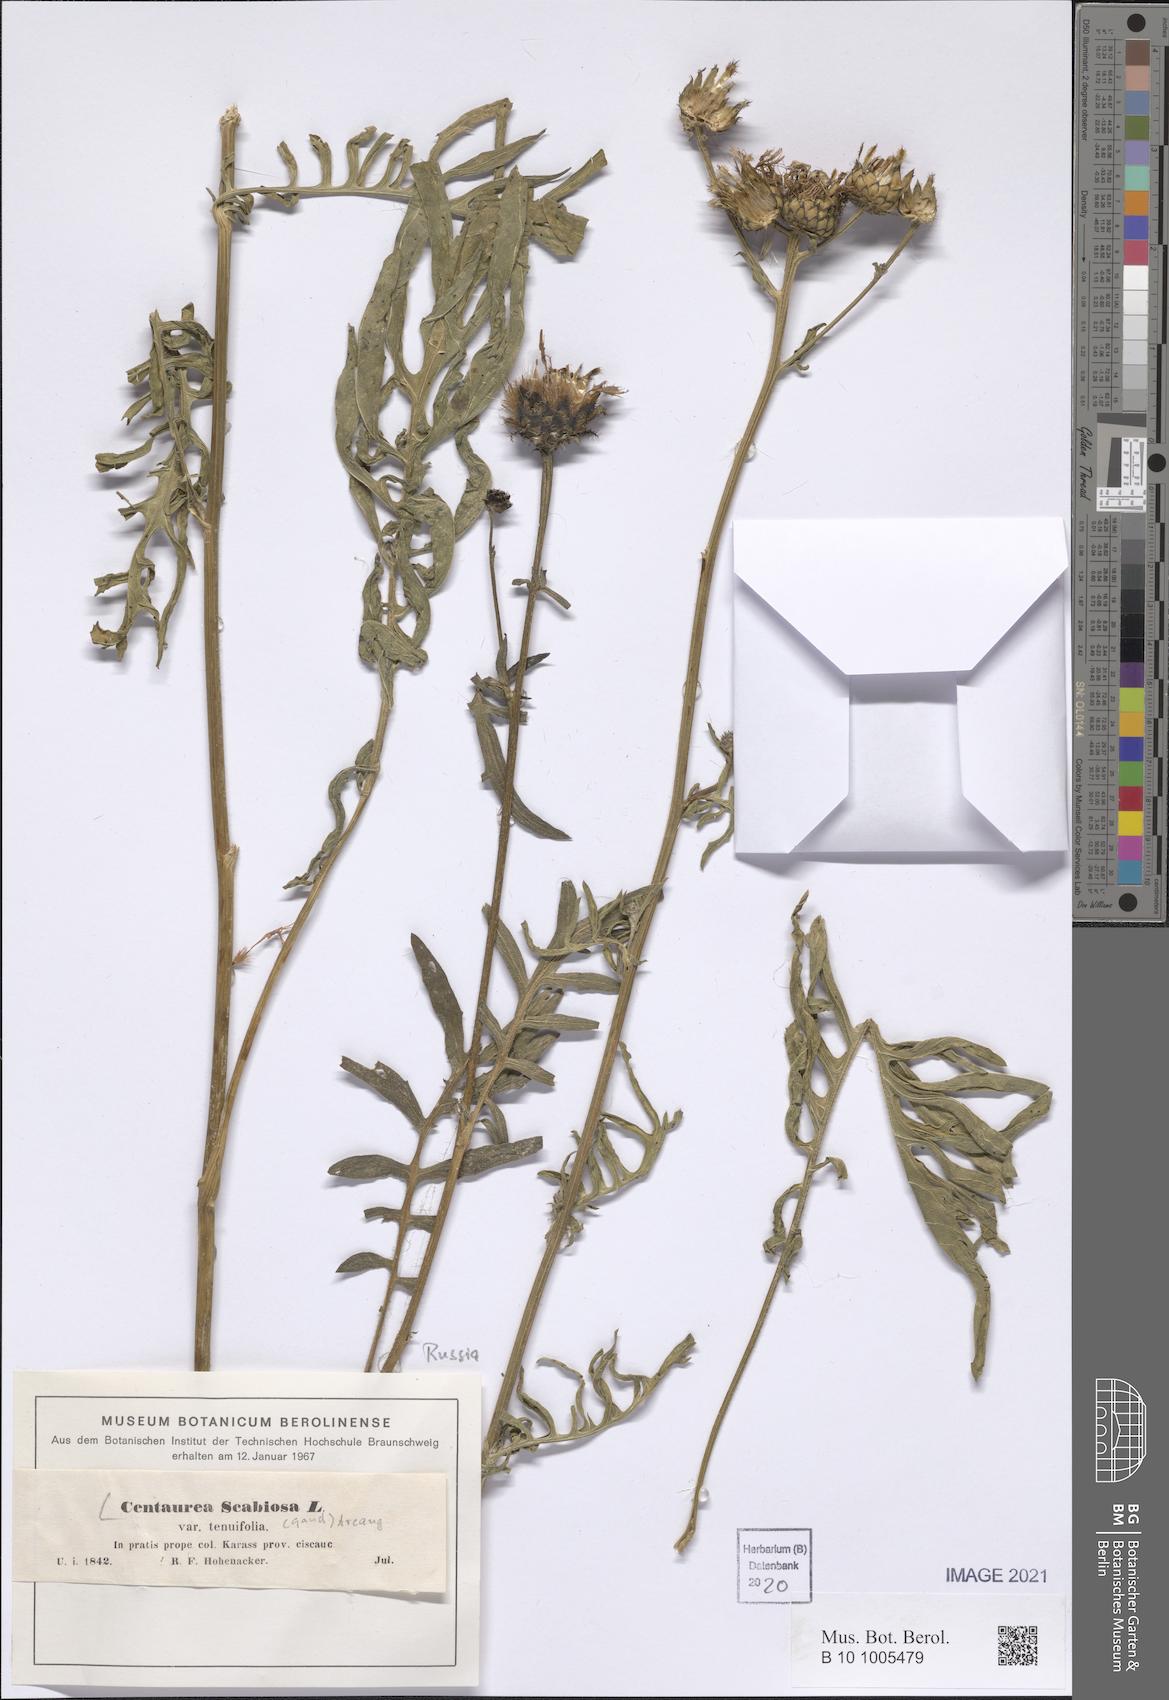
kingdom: Plantae
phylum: Tracheophyta
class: Magnoliopsida
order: Asterales
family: Asteraceae
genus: Centaurea
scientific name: Centaurea scabiosa
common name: Greater knapweed
